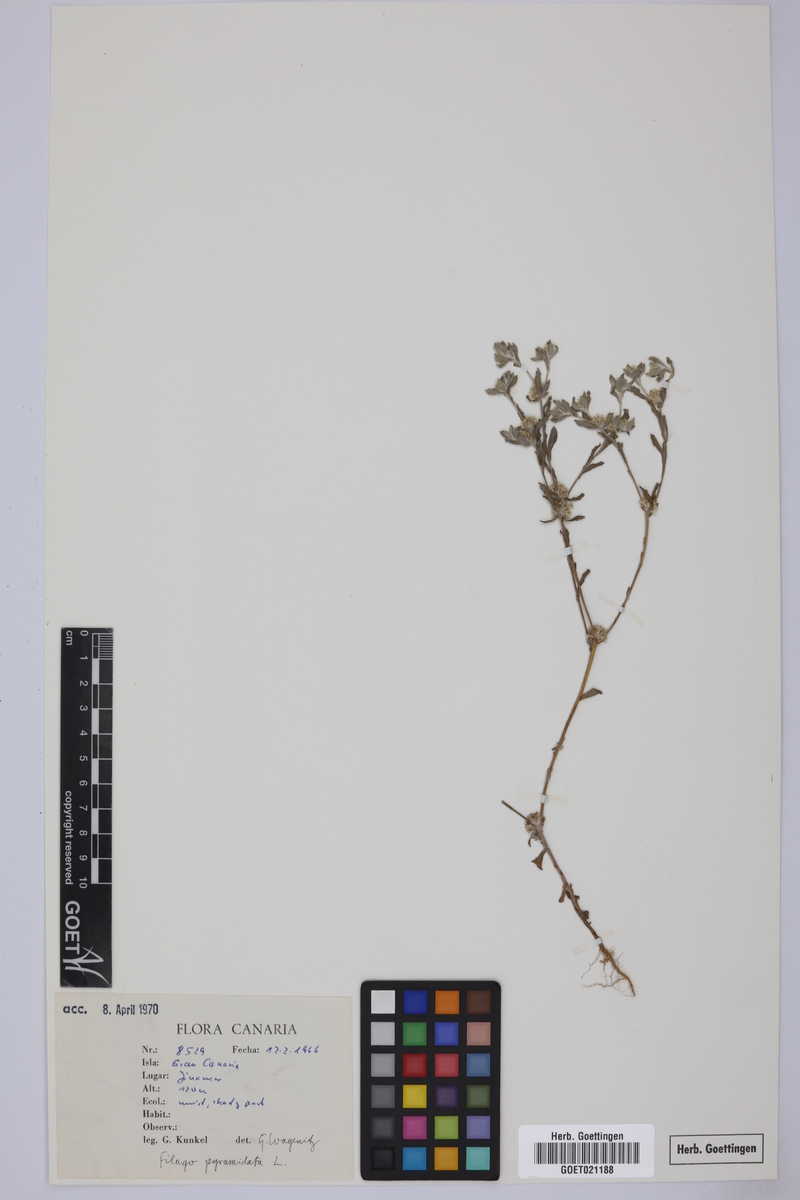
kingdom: Plantae
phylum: Tracheophyta
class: Magnoliopsida
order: Asterales
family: Asteraceae
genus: Filago
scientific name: Filago pyramidata
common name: Broad-leaved cudweed
